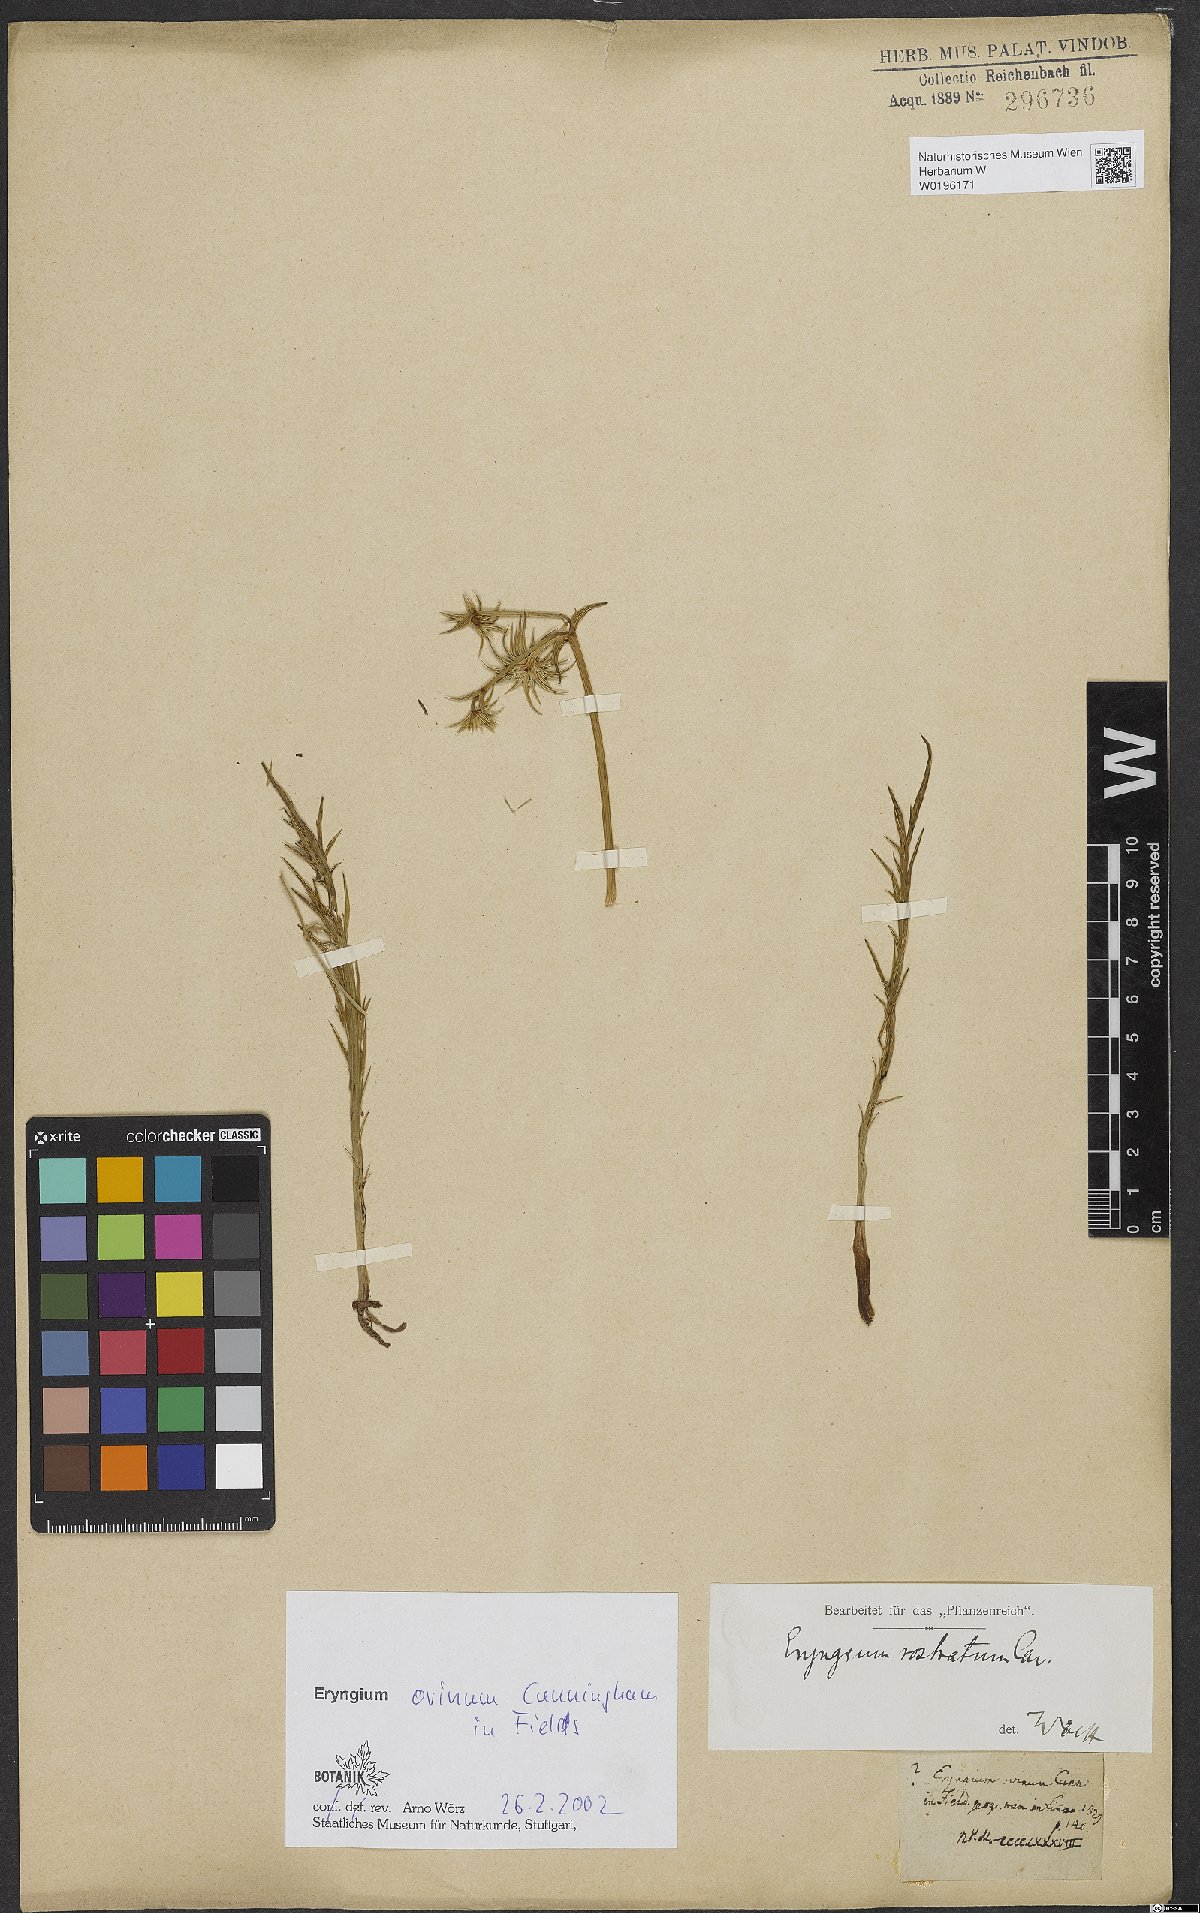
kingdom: Plantae
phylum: Tracheophyta
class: Magnoliopsida
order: Apiales
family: Apiaceae
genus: Eryngium
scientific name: Eryngium ovinum
